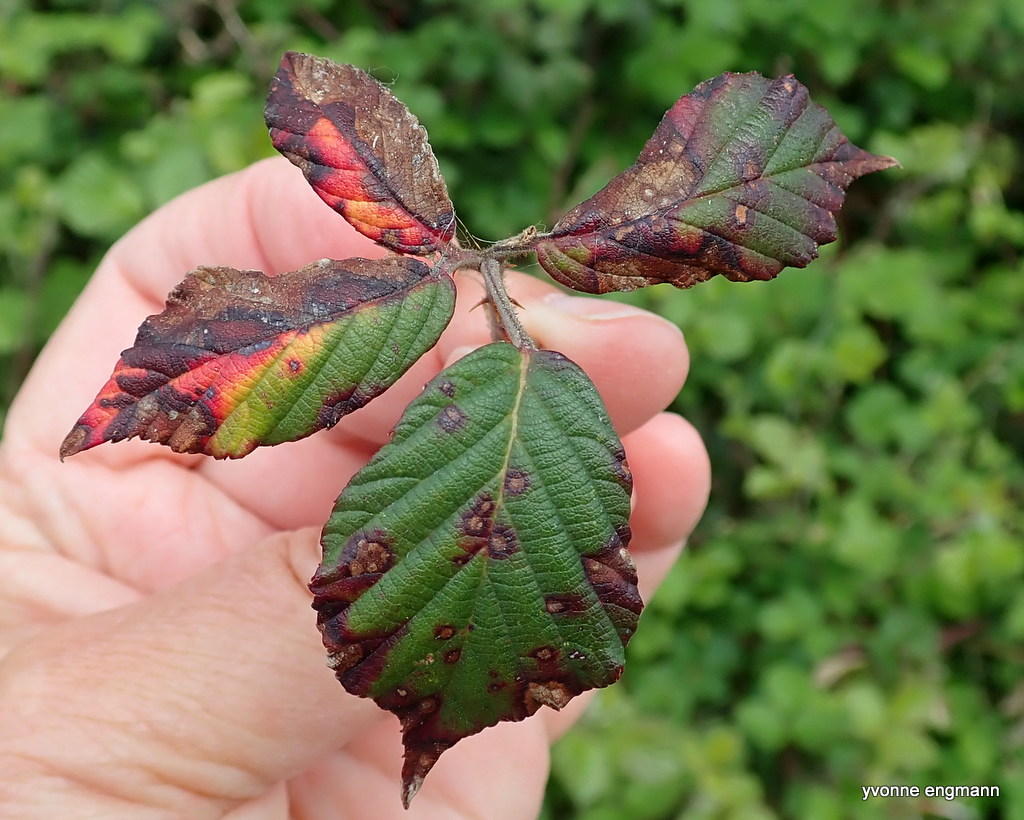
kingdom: Fungi
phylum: Basidiomycota
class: Pucciniomycetes
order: Pucciniales
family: Phragmidiaceae
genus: Phragmidium
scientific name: Phragmidium
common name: flercellerust
